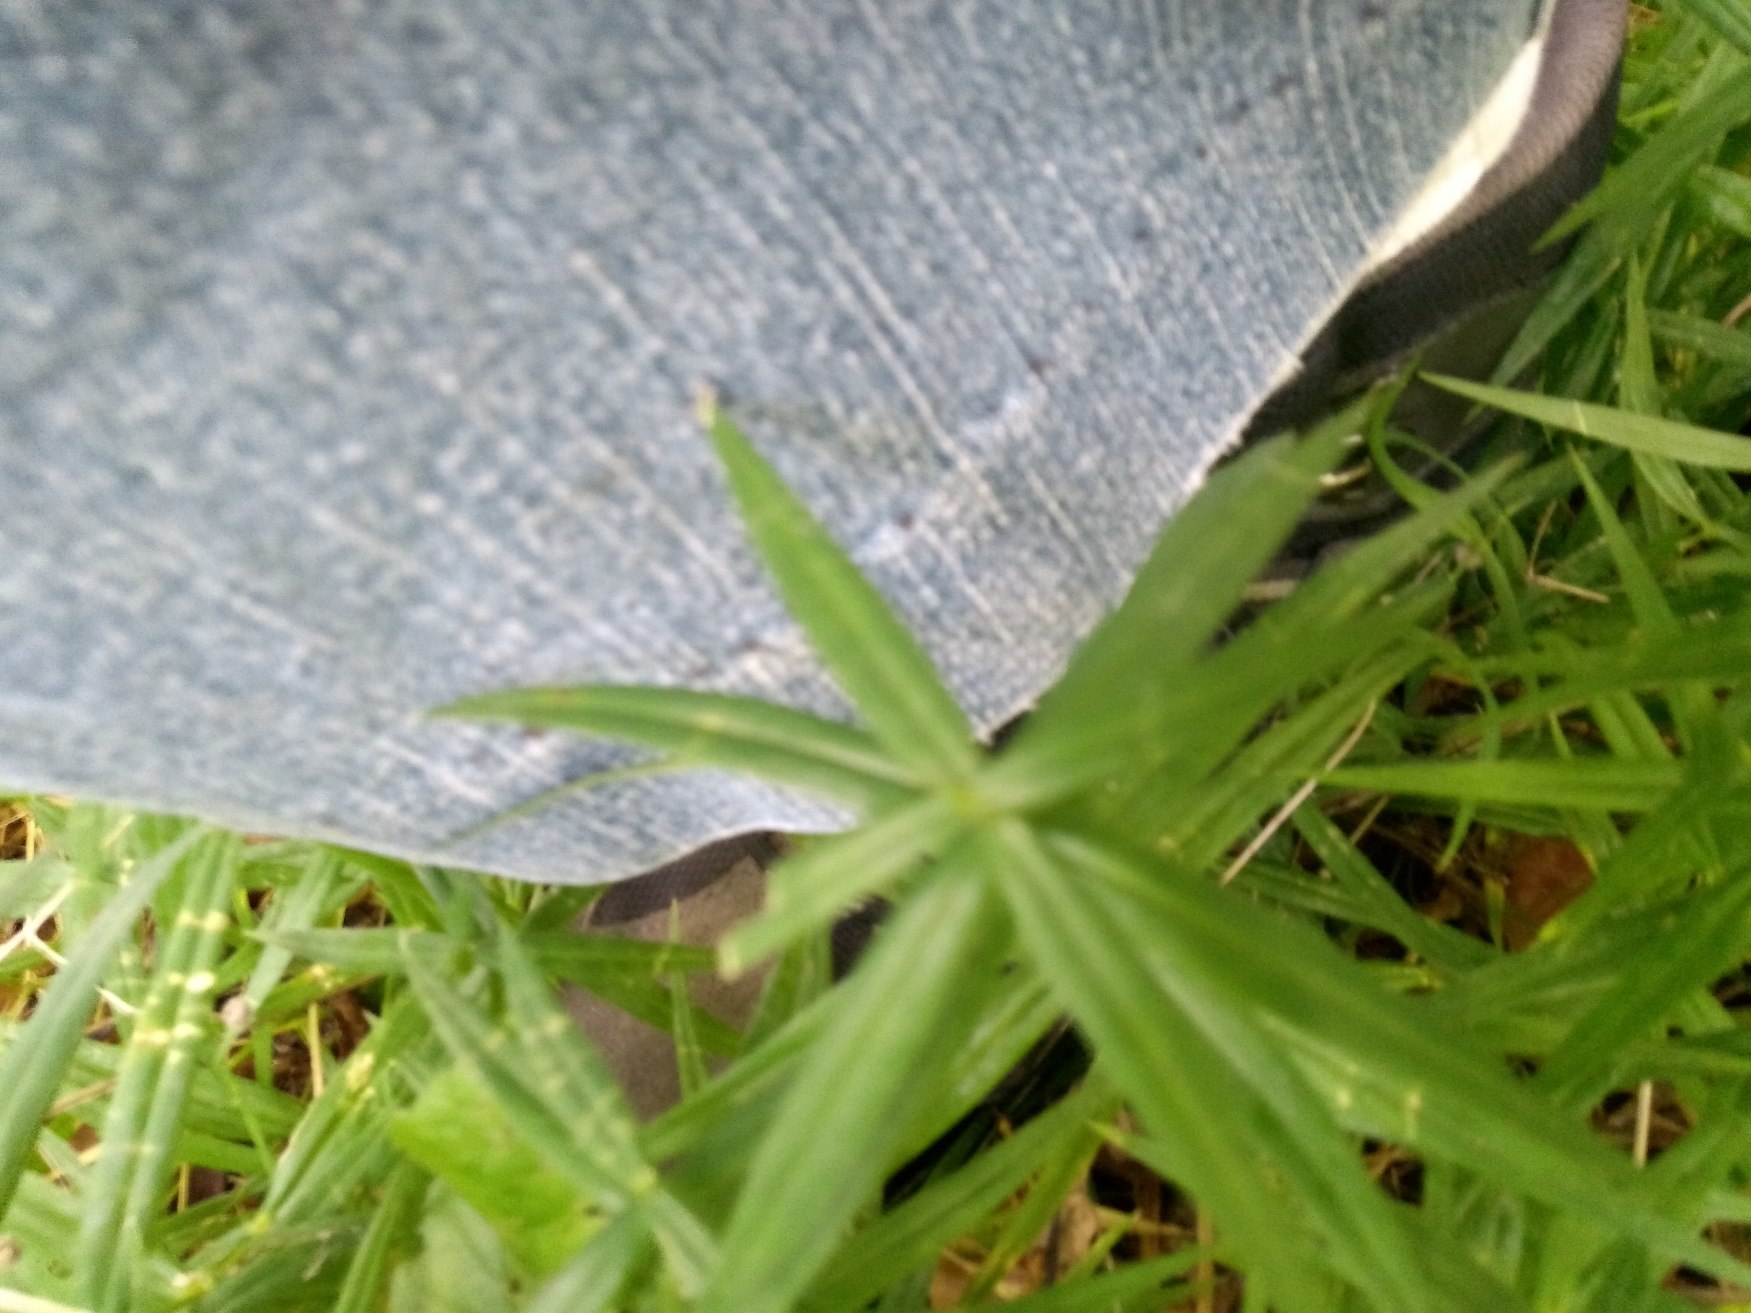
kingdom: Plantae
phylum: Tracheophyta
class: Magnoliopsida
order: Caryophyllales
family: Caryophyllaceae
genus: Rabelera
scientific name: Rabelera holostea
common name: Stor fladstjerne
